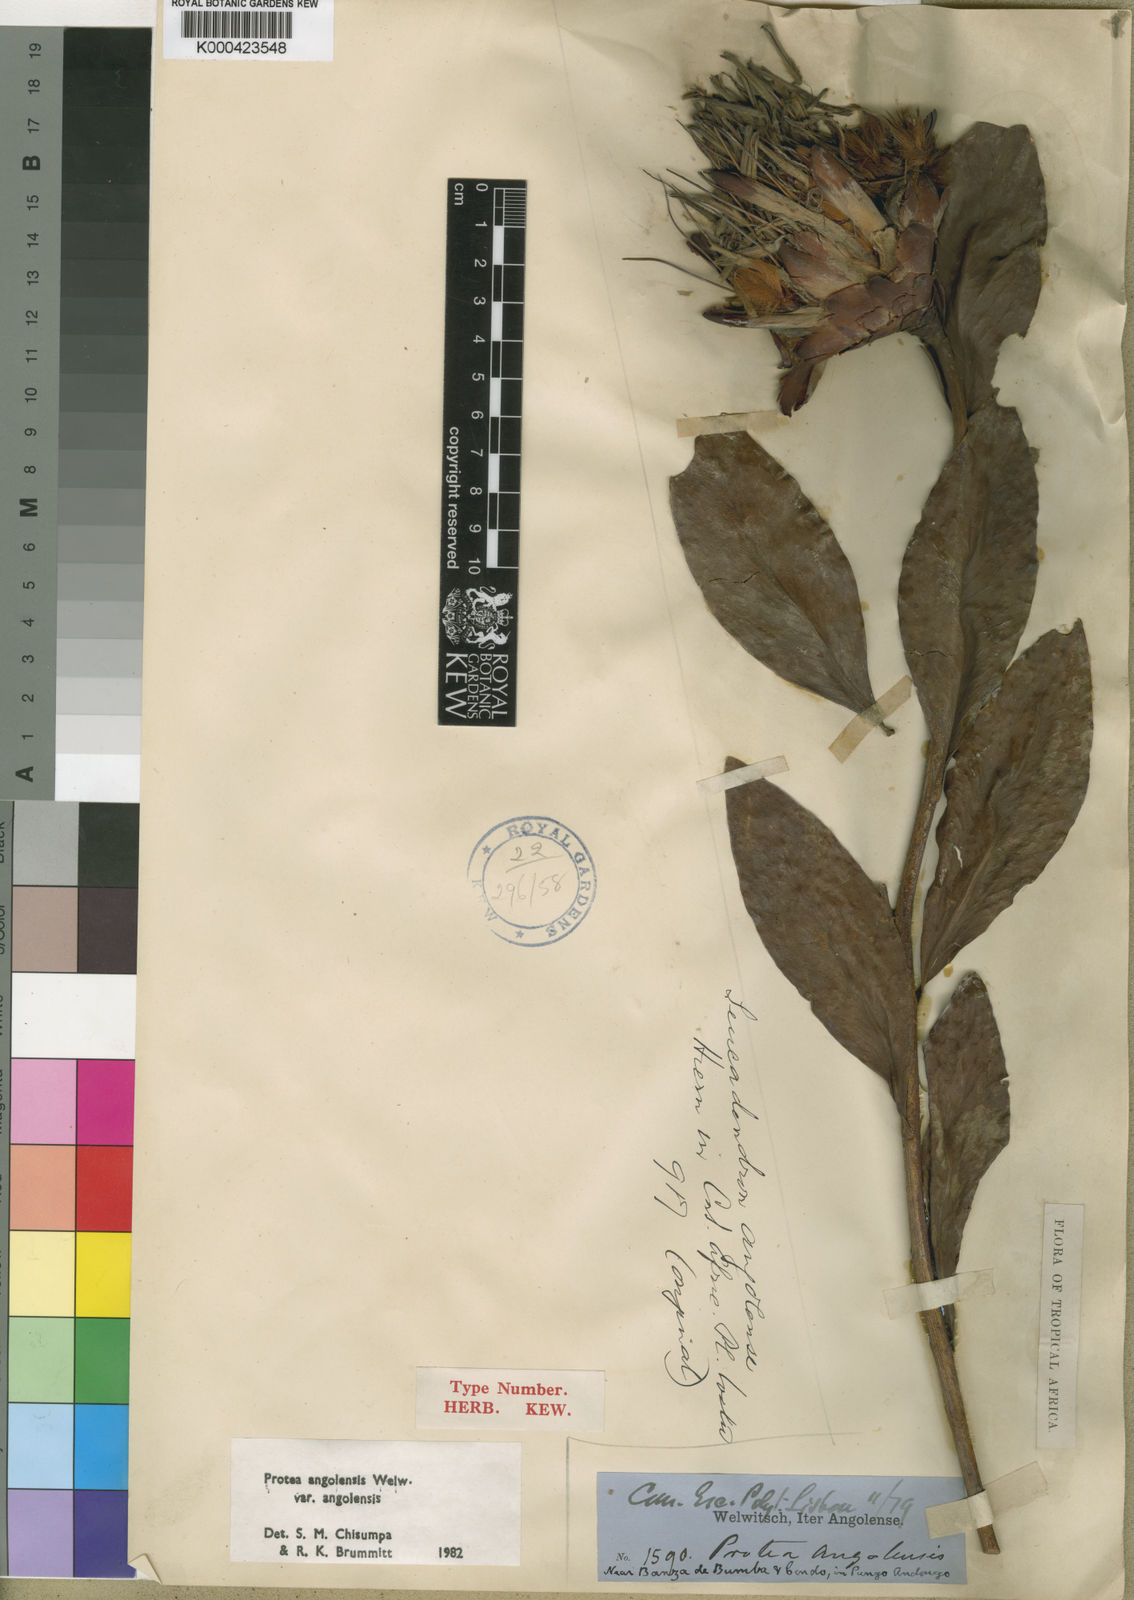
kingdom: Plantae
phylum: Tracheophyta
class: Magnoliopsida
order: Proteales
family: Proteaceae
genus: Protea
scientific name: Protea angolensis
